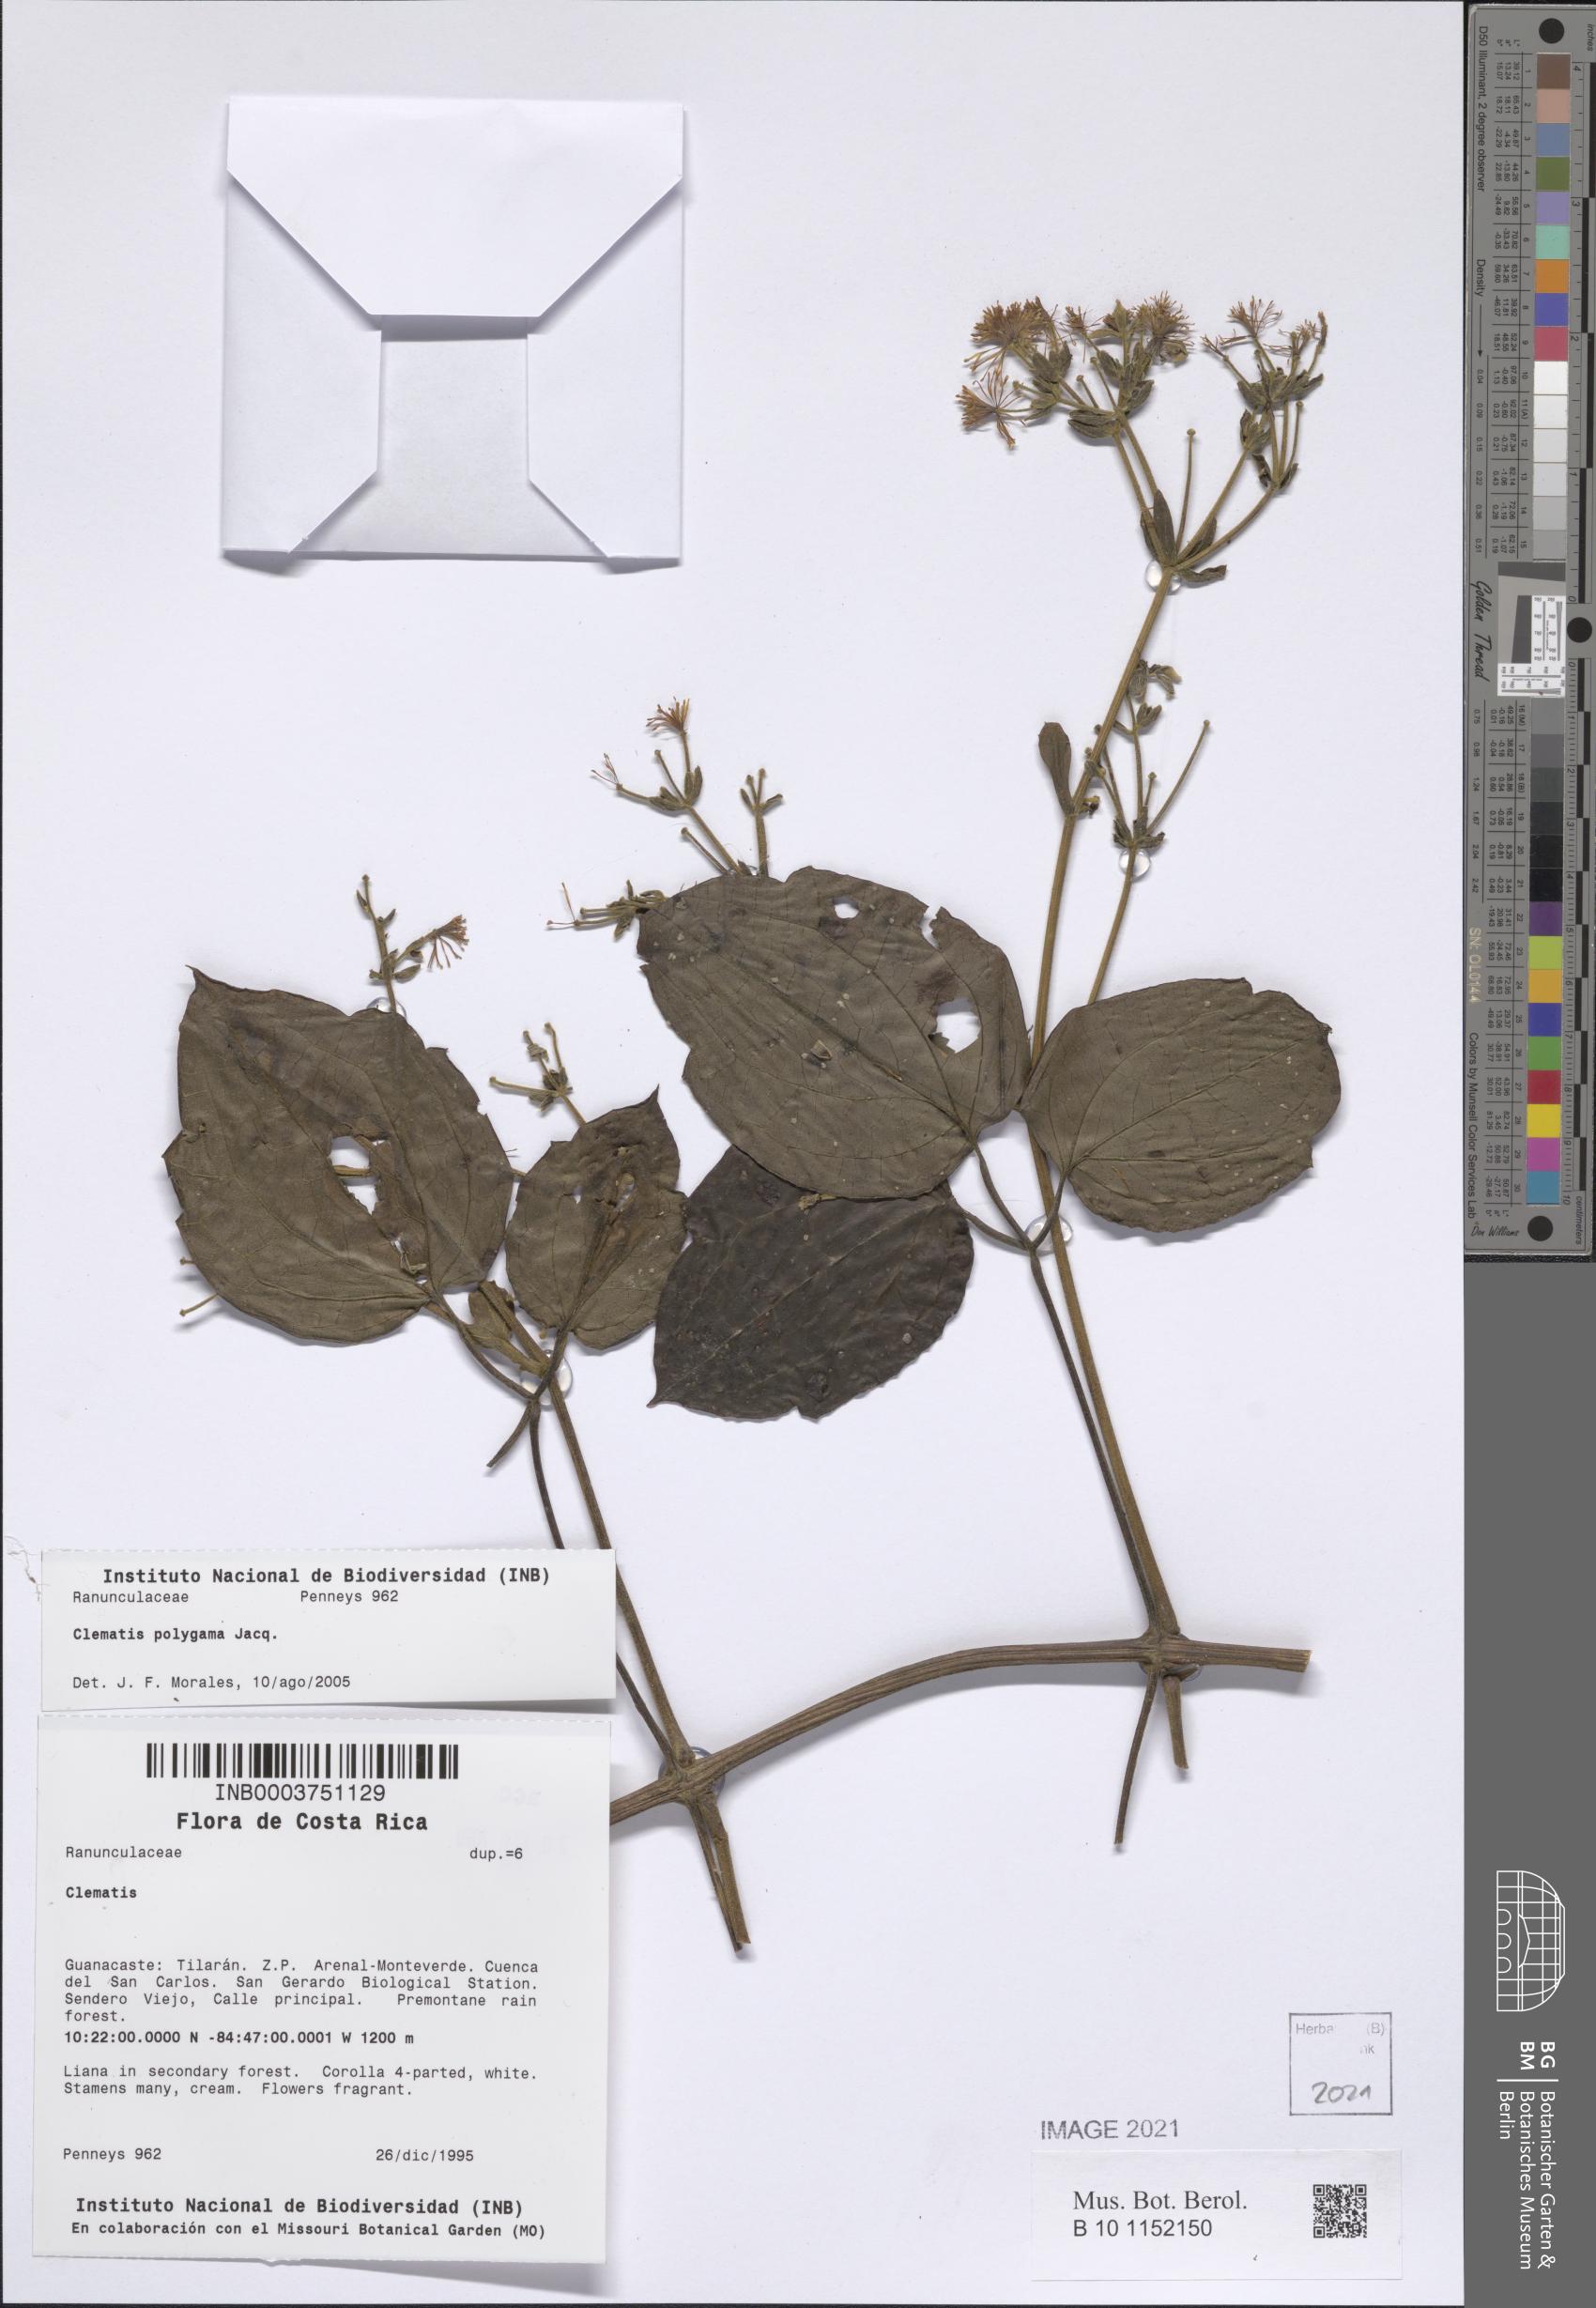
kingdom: Plantae
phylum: Tracheophyta
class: Magnoliopsida
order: Ranunculales
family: Ranunculaceae
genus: Clematis
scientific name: Clematis polygama
